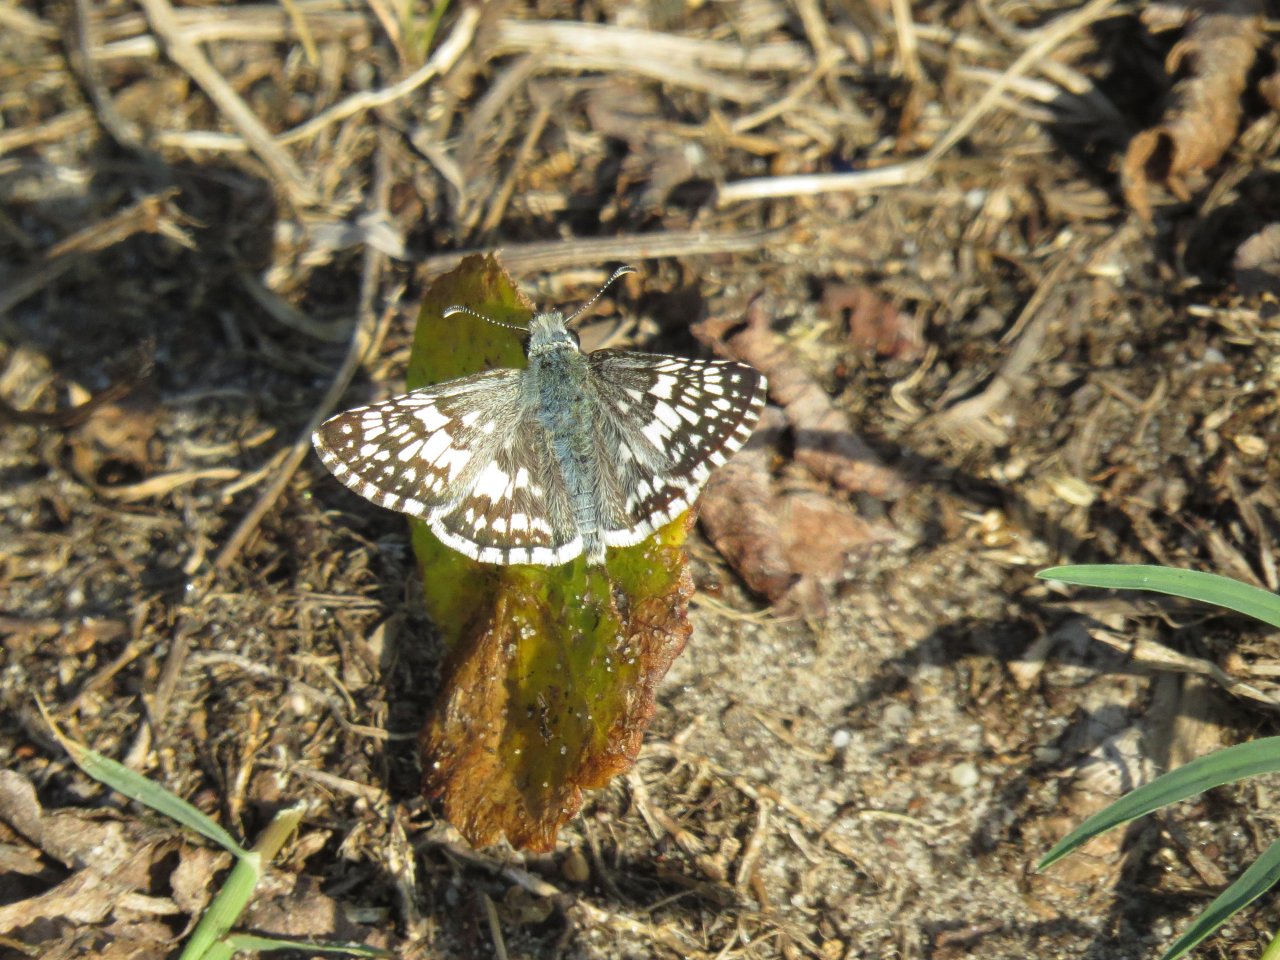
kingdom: Animalia
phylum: Arthropoda
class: Insecta
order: Lepidoptera
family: Hesperiidae
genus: Pyrgus
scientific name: Pyrgus communis
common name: White Checkered-Skipper
